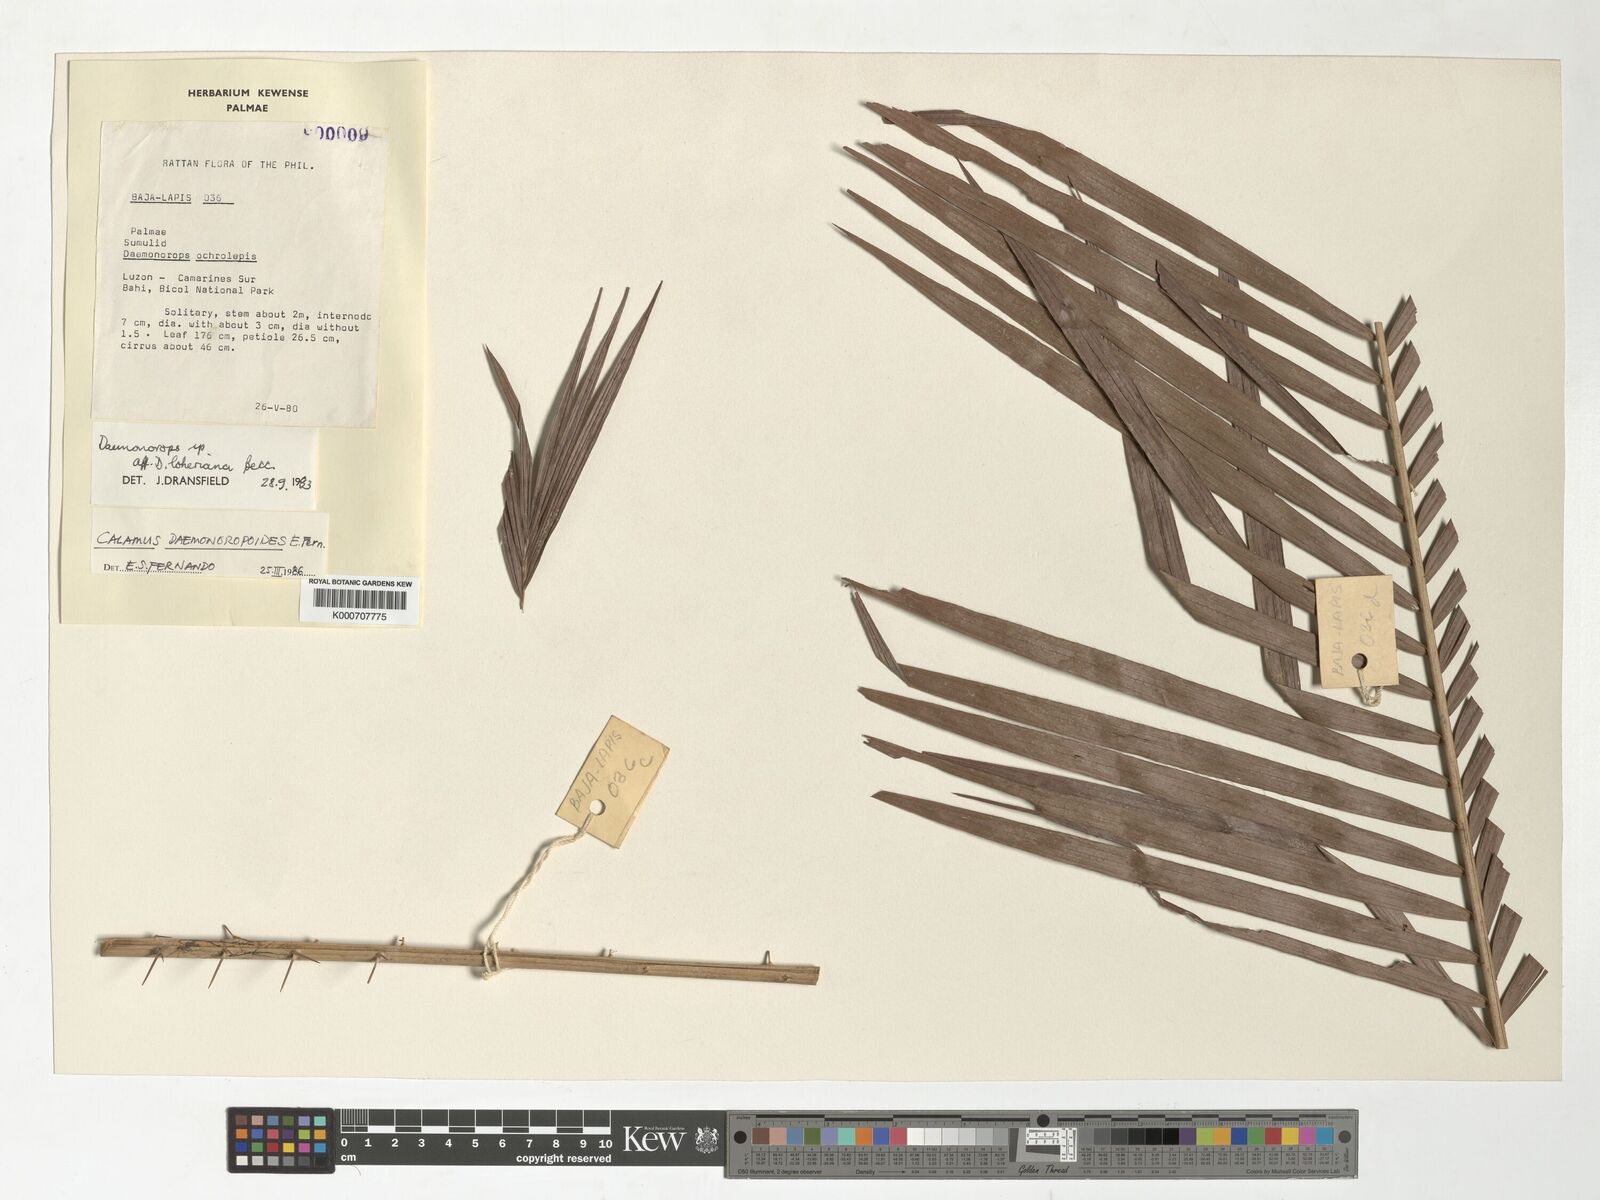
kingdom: Plantae
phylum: Tracheophyta
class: Liliopsida
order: Arecales
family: Arecaceae
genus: Calamus
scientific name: Calamus erinaceus
